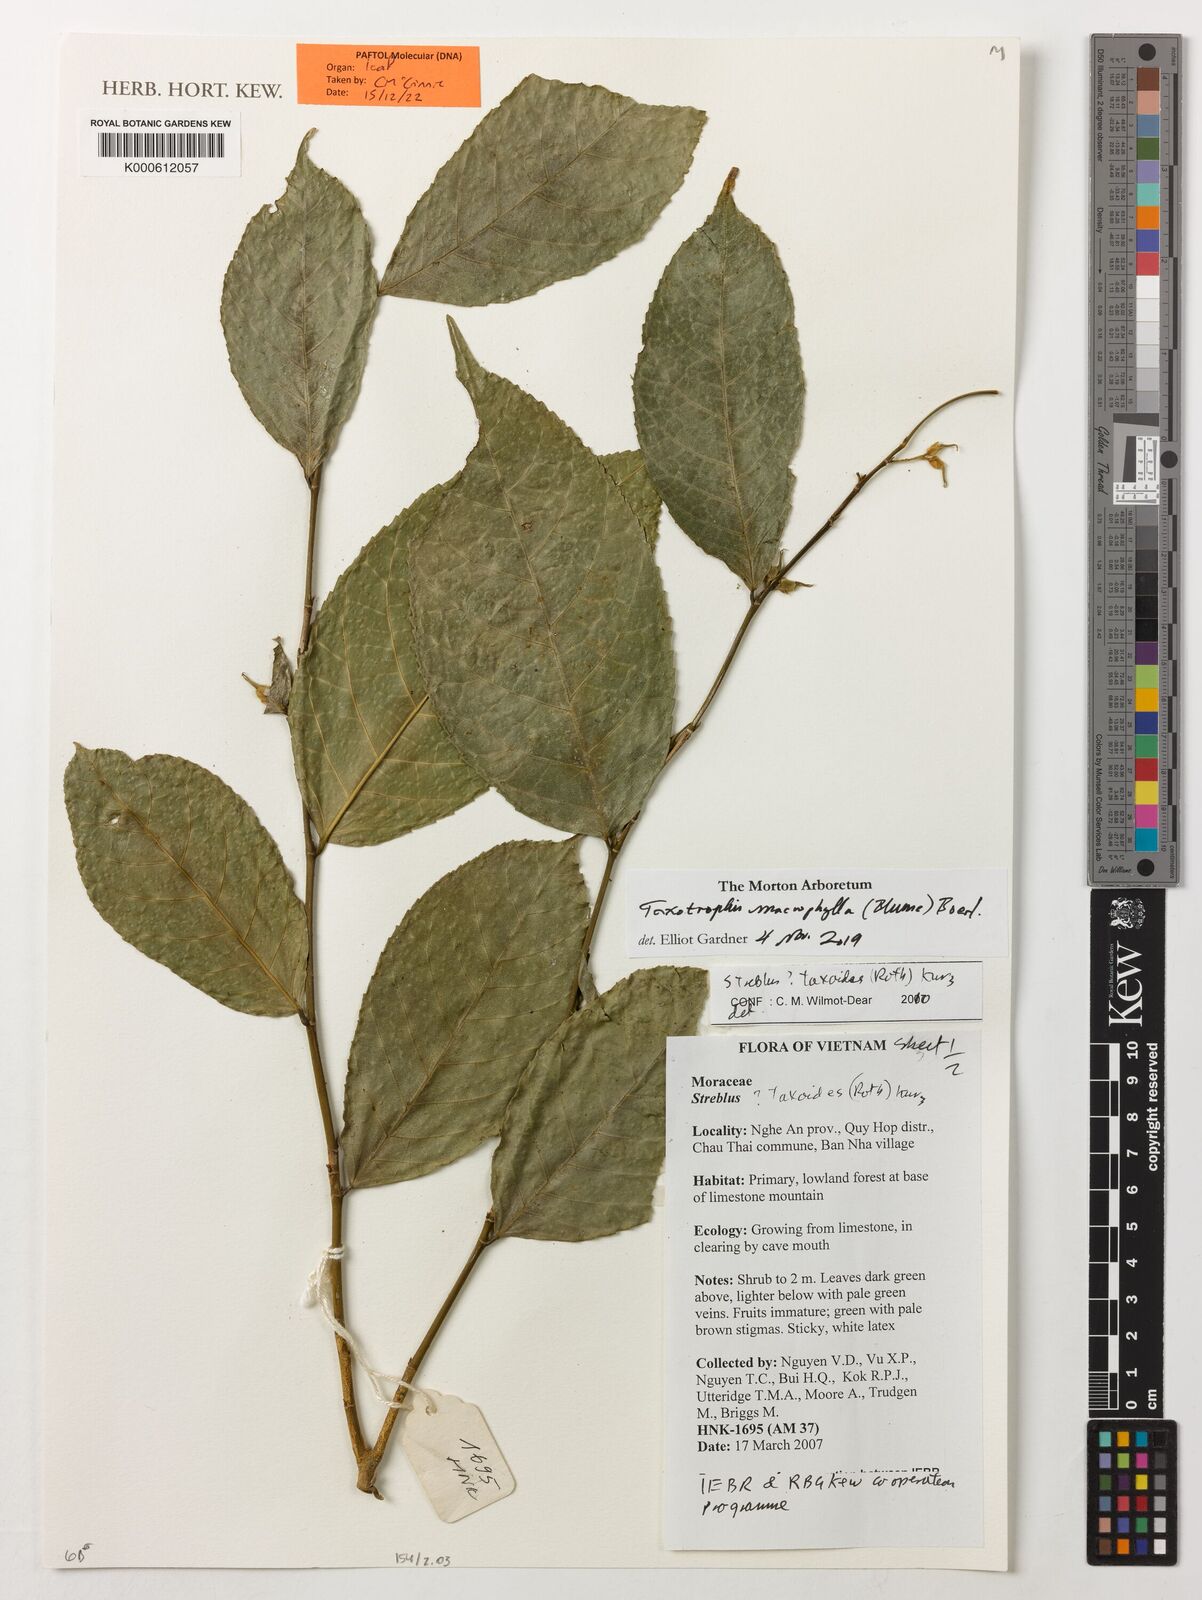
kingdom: Plantae
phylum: Tracheophyta
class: Magnoliopsida
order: Rosales
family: Moraceae
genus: Taxotrophis
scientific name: Taxotrophis taxoides
